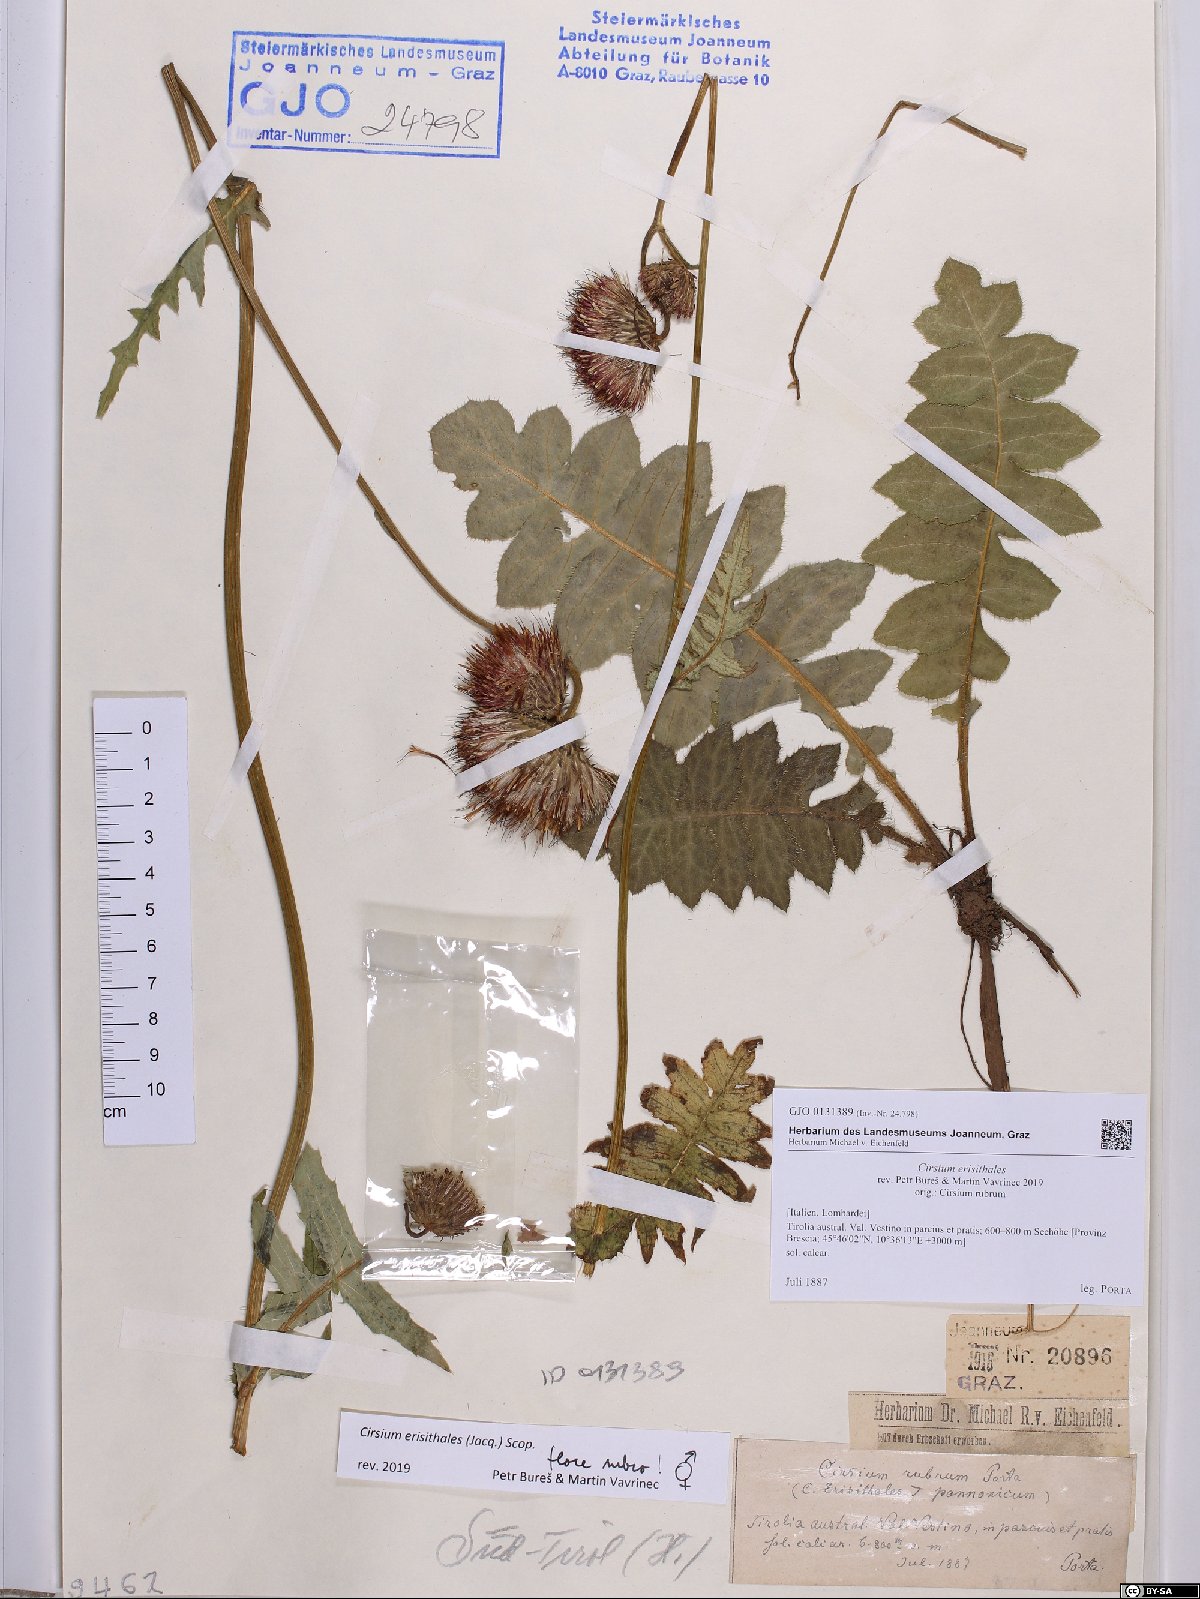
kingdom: Plantae
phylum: Tracheophyta
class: Magnoliopsida
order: Asterales
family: Asteraceae
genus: Cirsium
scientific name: Cirsium erisithales
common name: Yellow thistle
